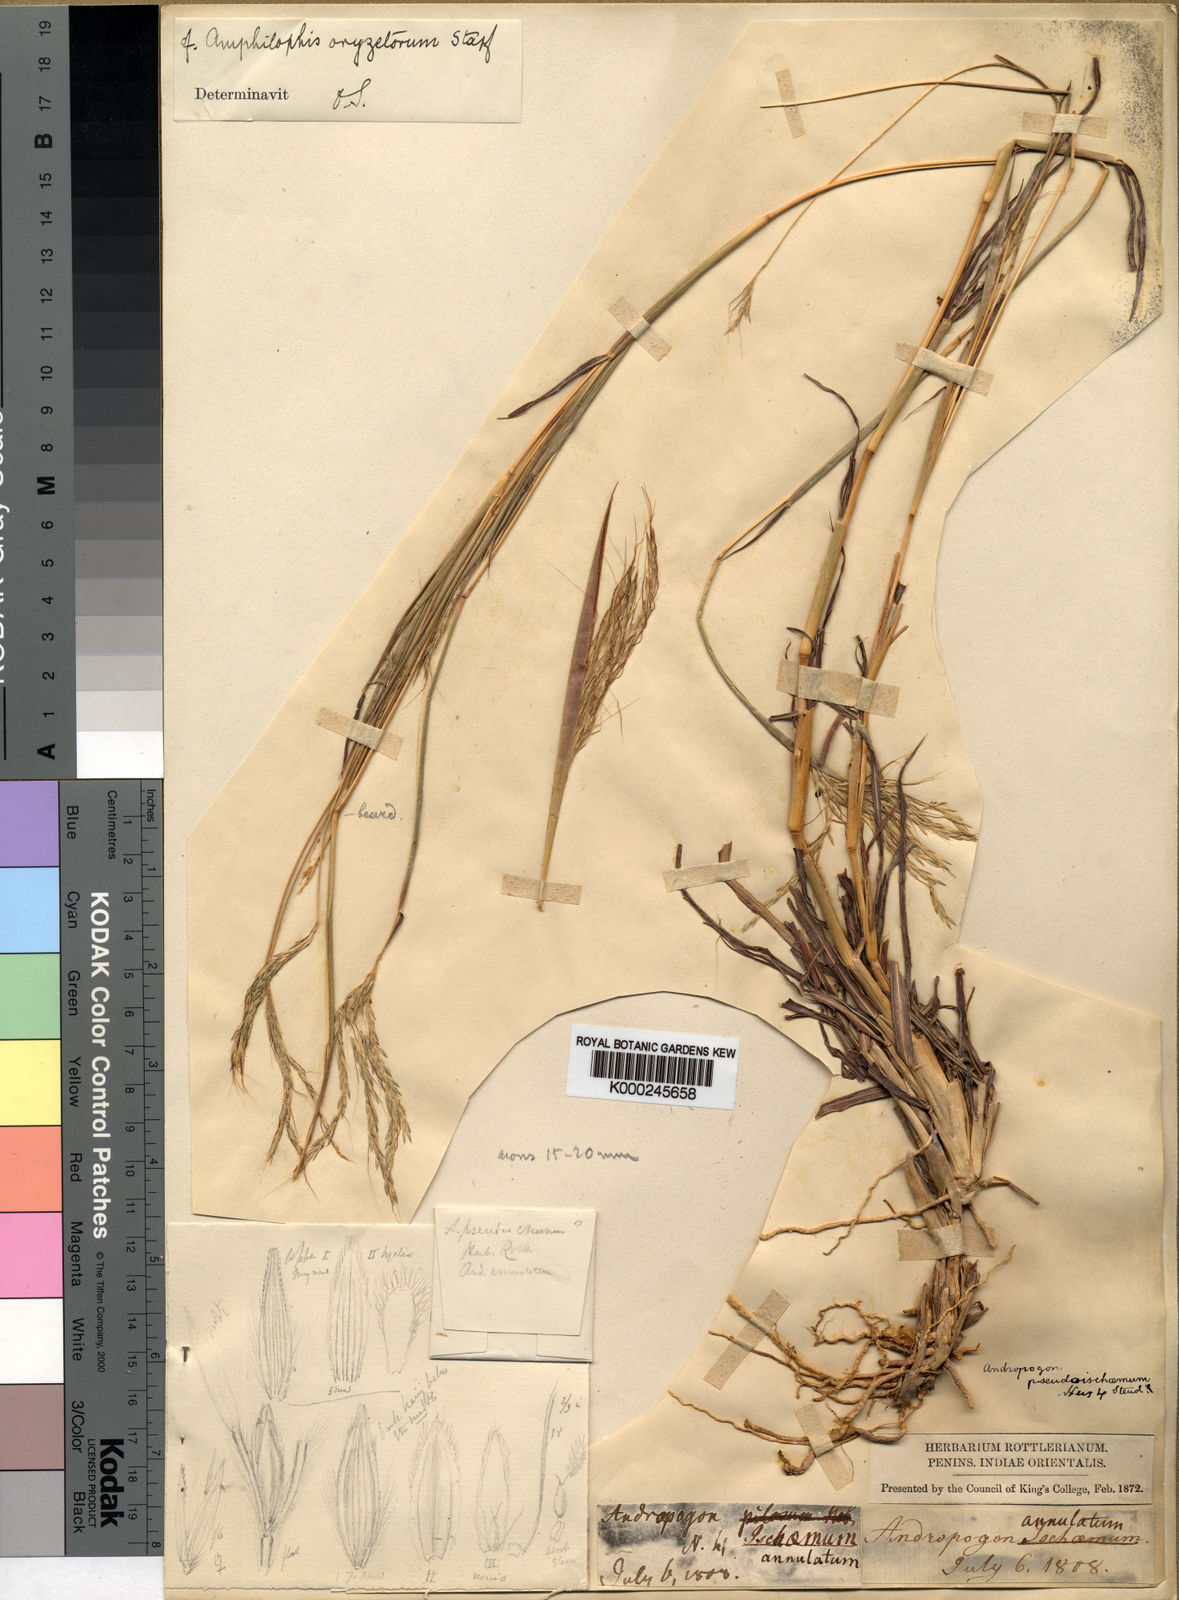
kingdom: Plantae
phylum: Tracheophyta
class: Liliopsida
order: Poales
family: Poaceae
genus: Bothriochloa
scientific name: Bothriochloa pseudoischaemum
